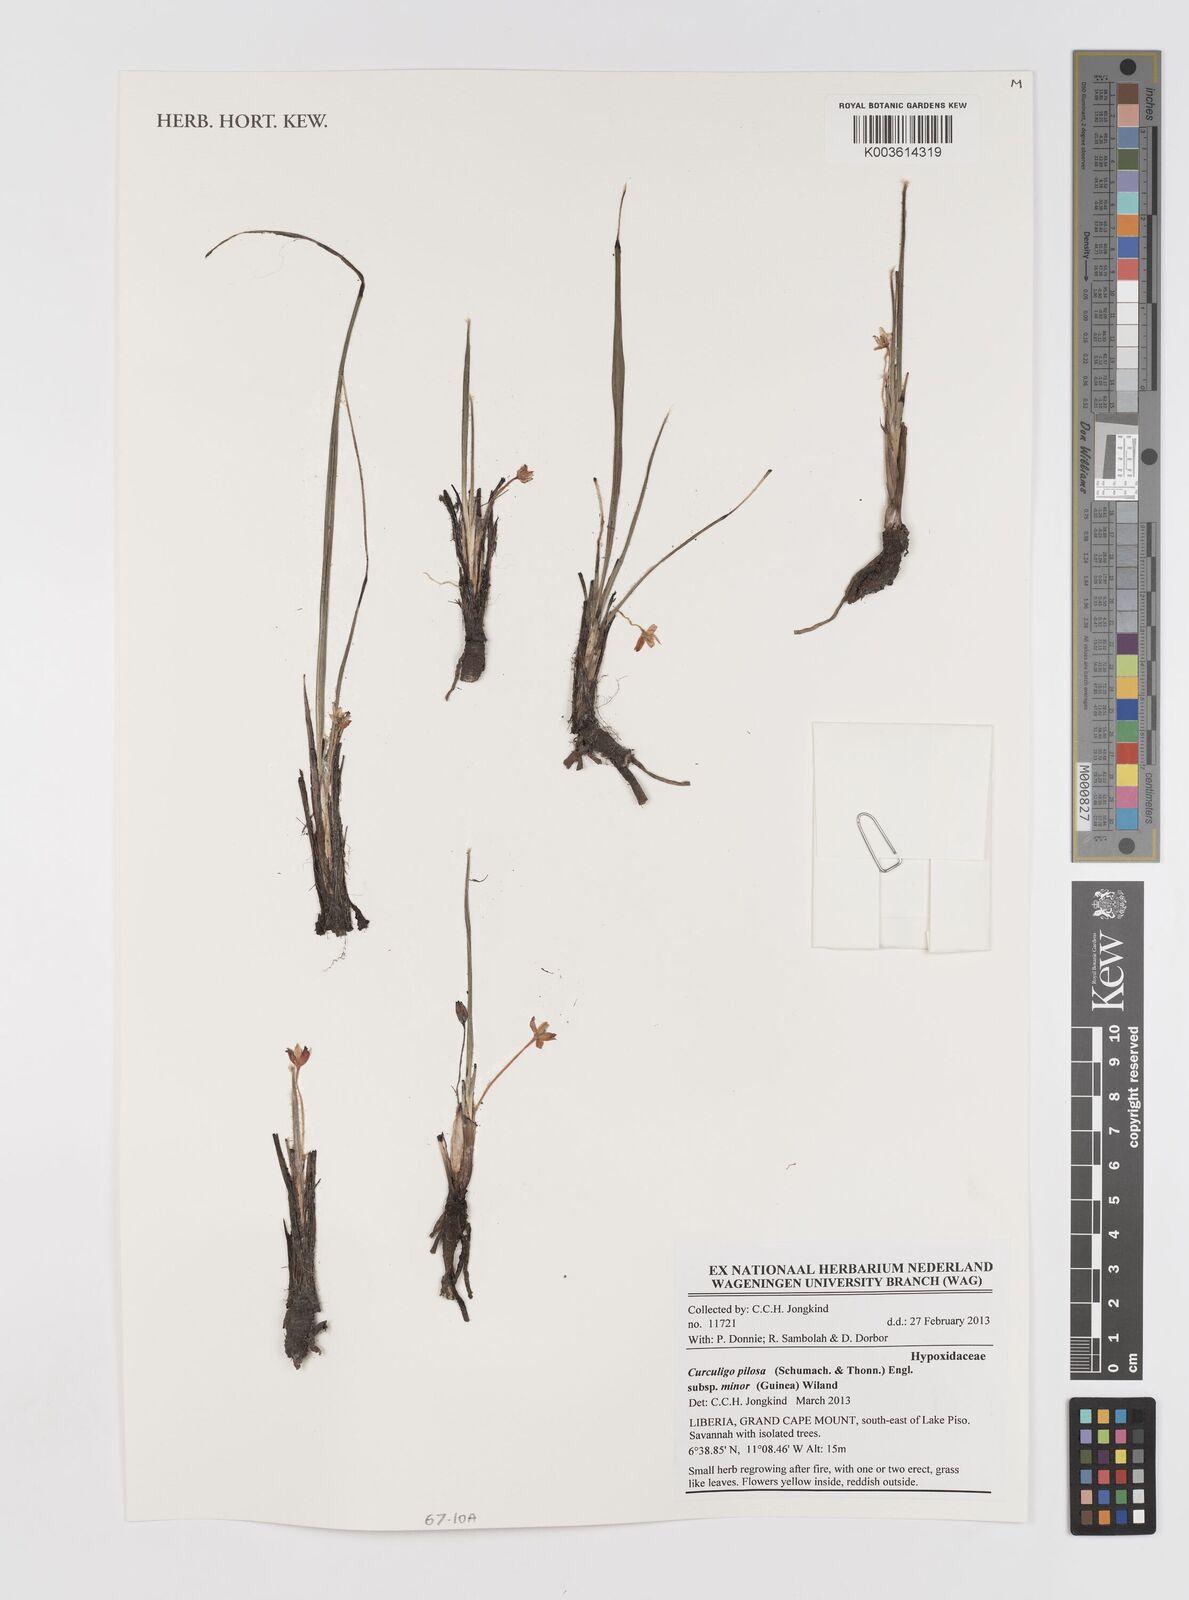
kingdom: Plantae
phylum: Tracheophyta
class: Liliopsida
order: Asparagales
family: Hypoxidaceae
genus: Curculigo
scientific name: Curculigo pilosa
